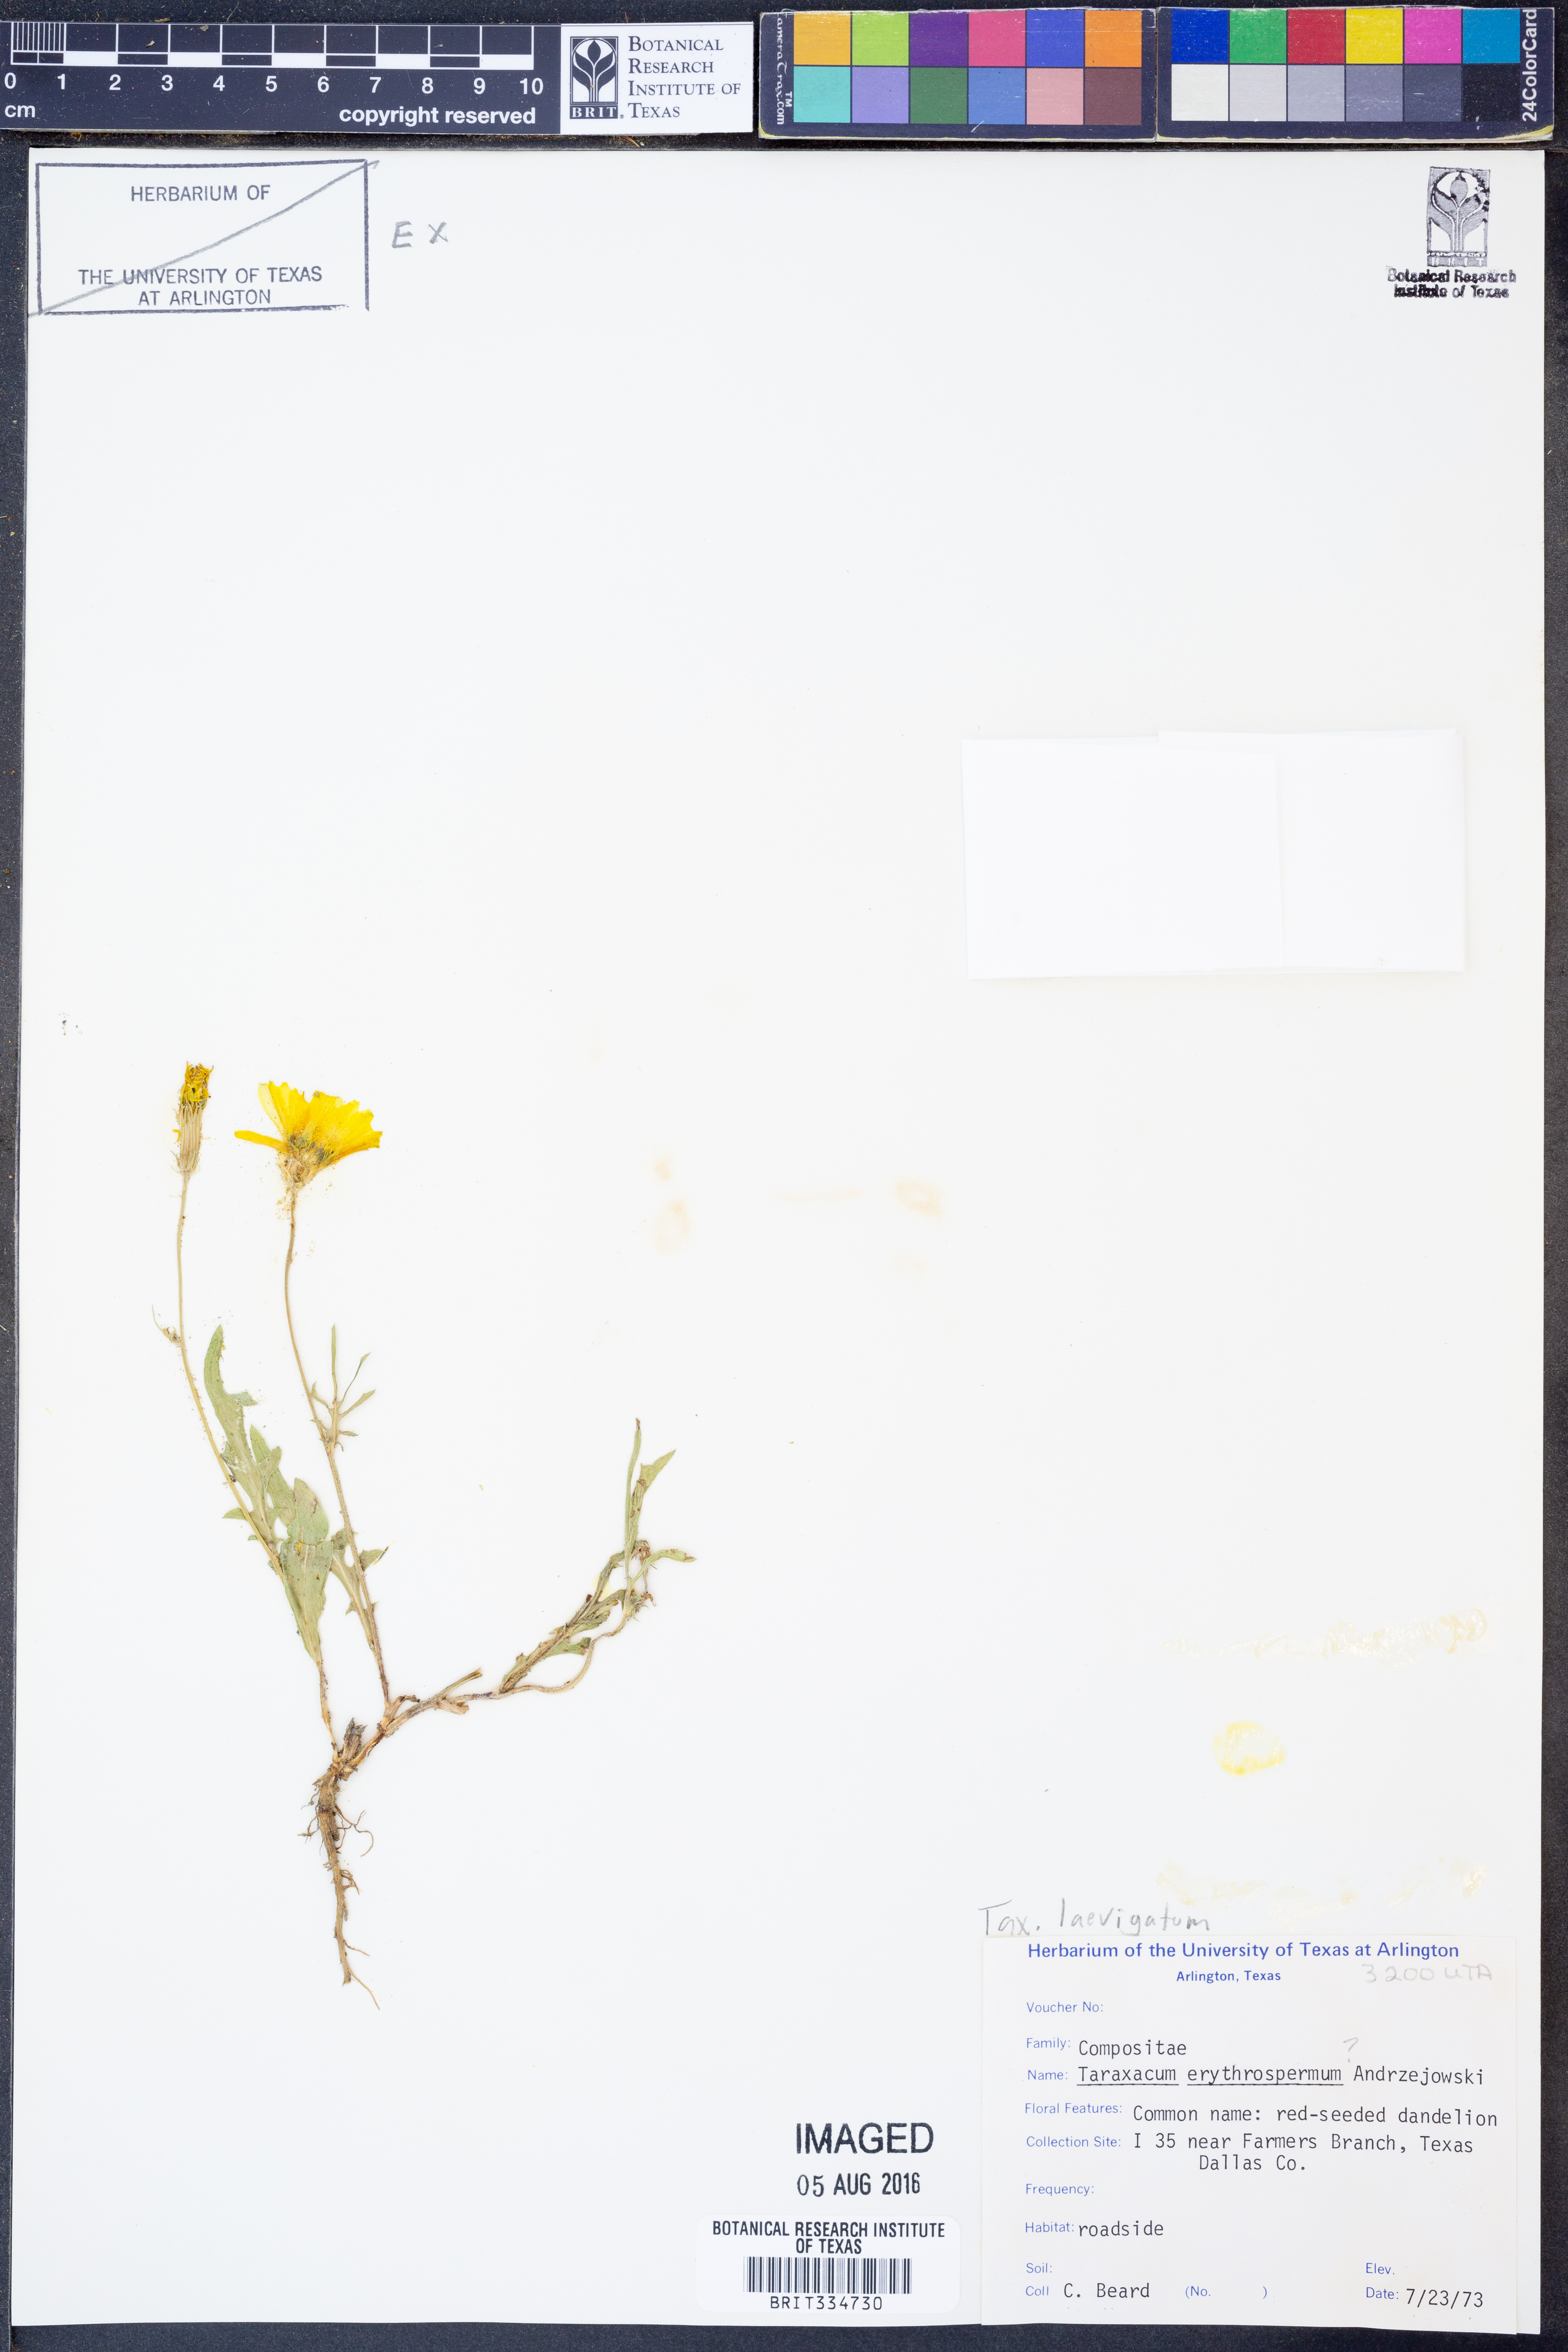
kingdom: Plantae
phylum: Tracheophyta
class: Magnoliopsida
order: Asterales
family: Asteraceae
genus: Taraxacum
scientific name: Taraxacum erythrospermum
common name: Rock dandelion
